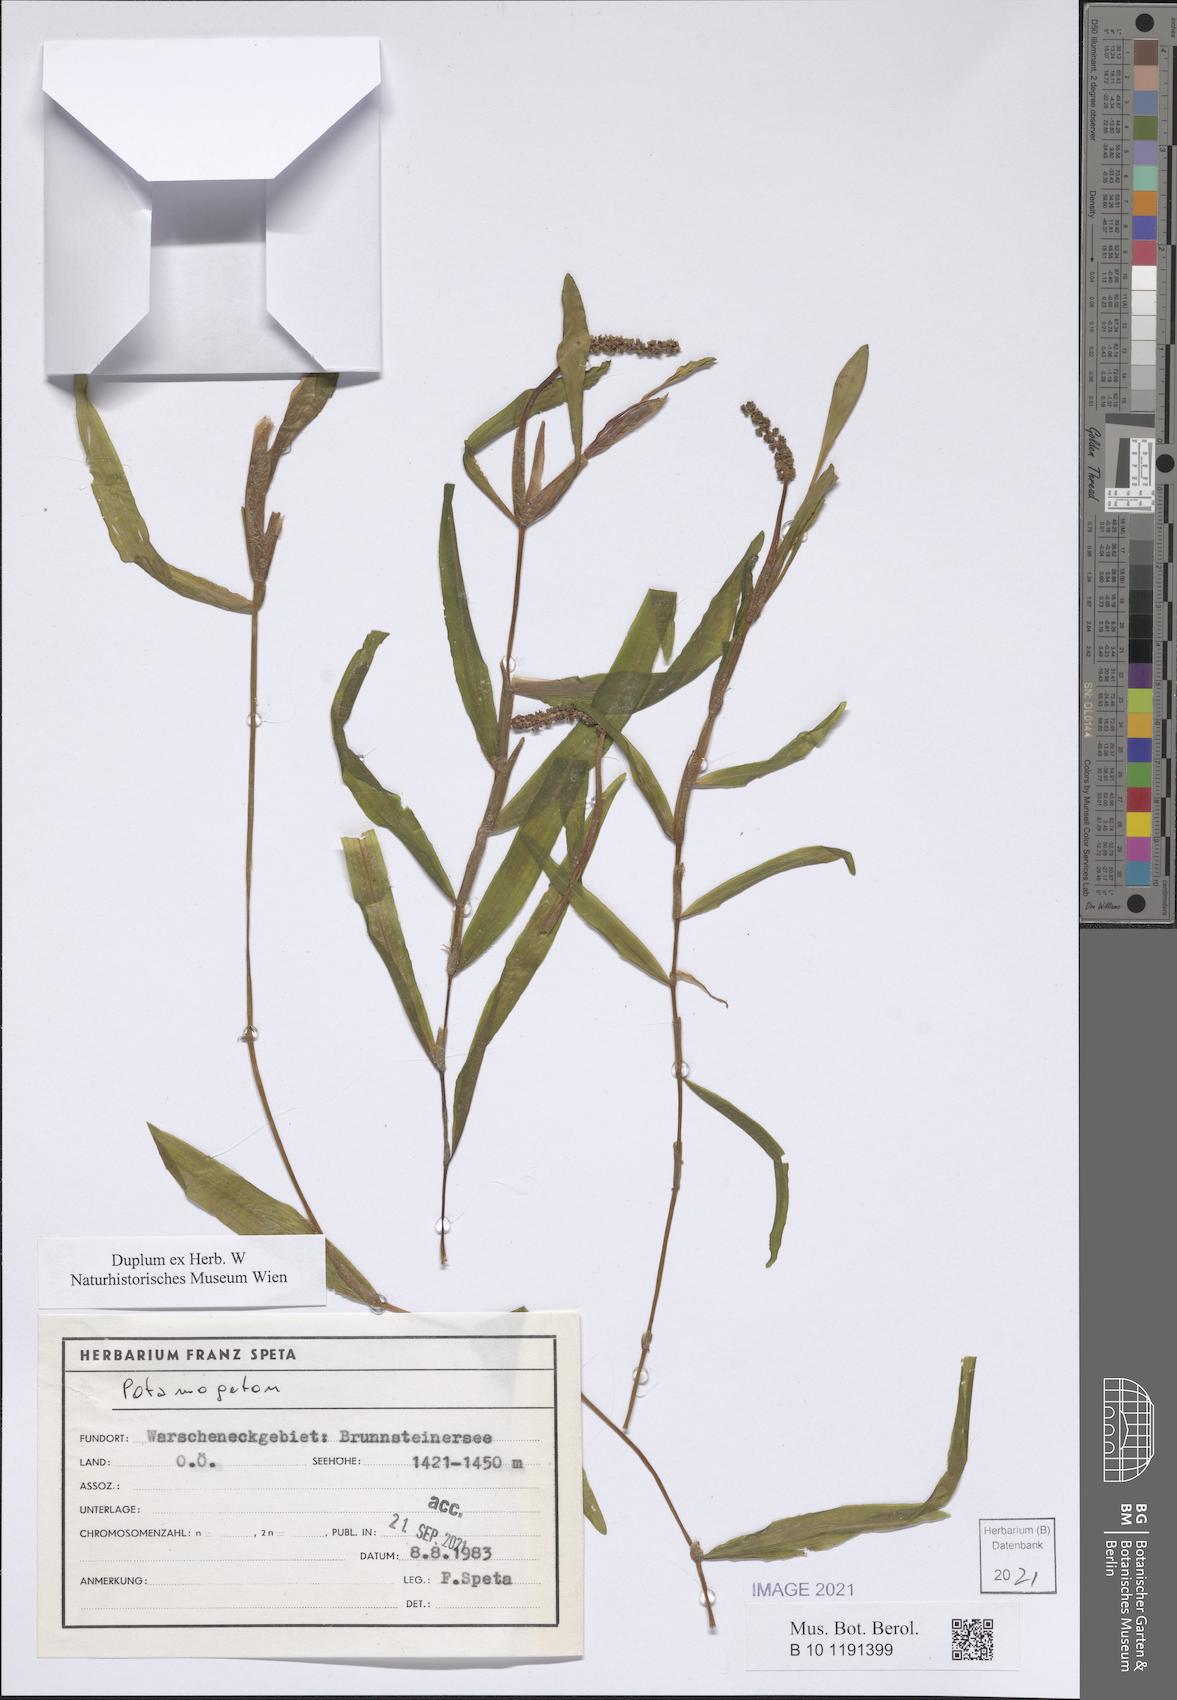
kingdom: Plantae
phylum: Tracheophyta
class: Liliopsida
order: Alismatales
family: Potamogetonaceae
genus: Potamogeton
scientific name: Potamogeton
